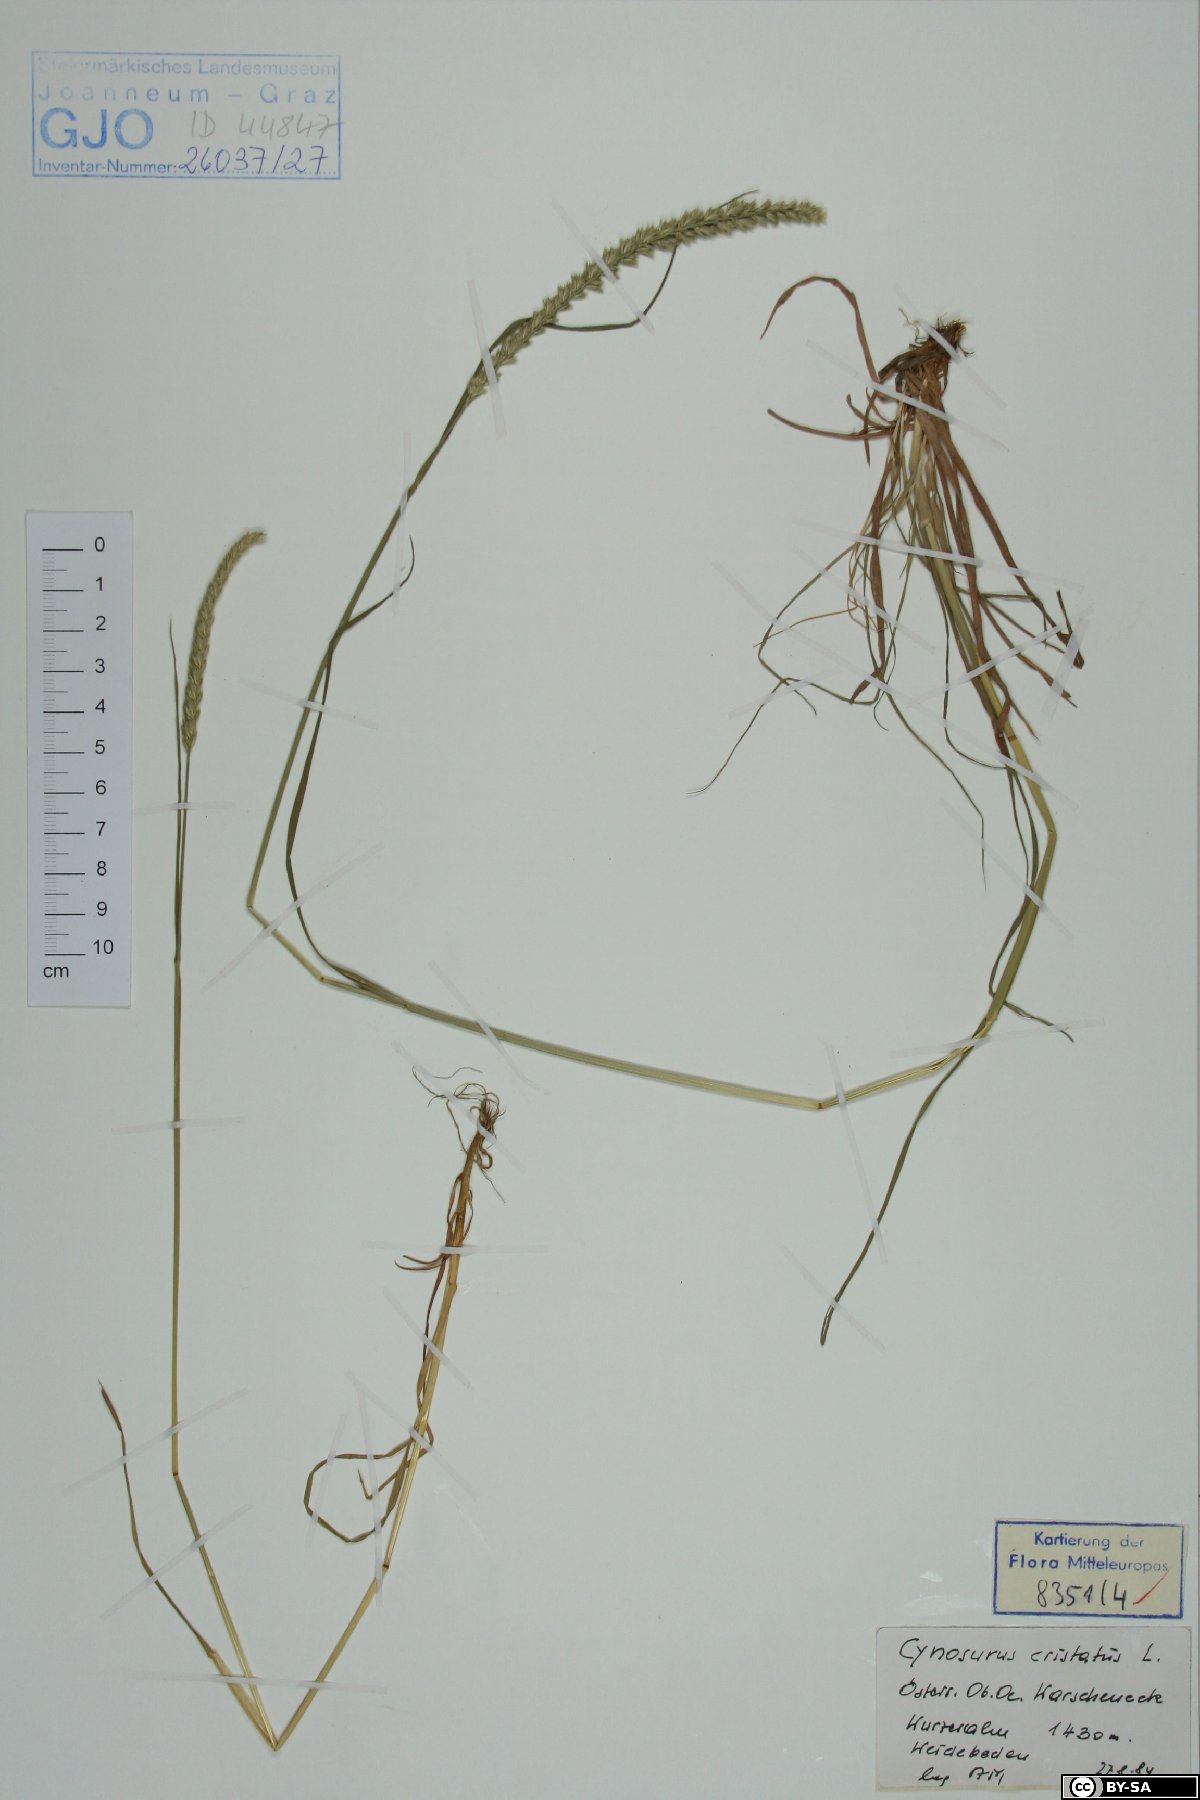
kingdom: Plantae
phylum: Tracheophyta
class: Liliopsida
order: Poales
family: Poaceae
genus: Cynosurus
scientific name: Cynosurus cristatus
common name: Crested dog's-tail
